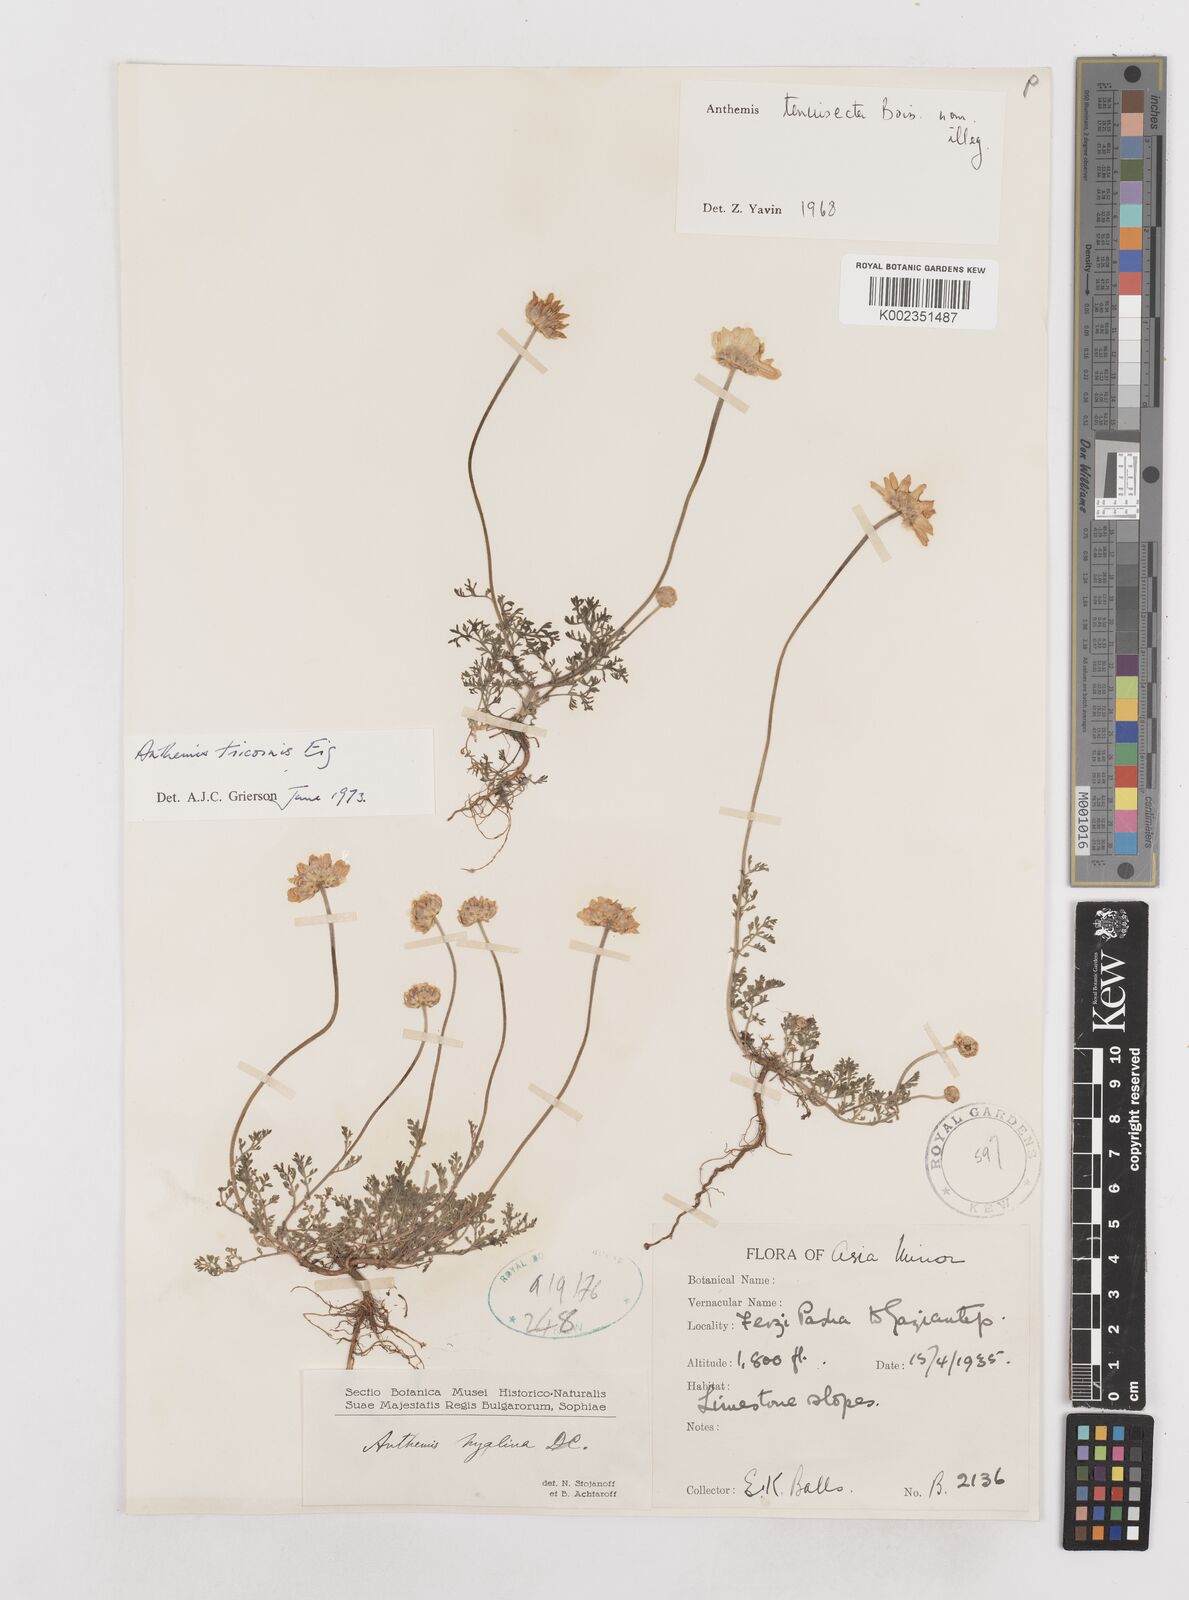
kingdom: Plantae
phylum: Tracheophyta
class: Magnoliopsida
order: Asterales
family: Asteraceae
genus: Anthemis
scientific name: Anthemis tricornis
